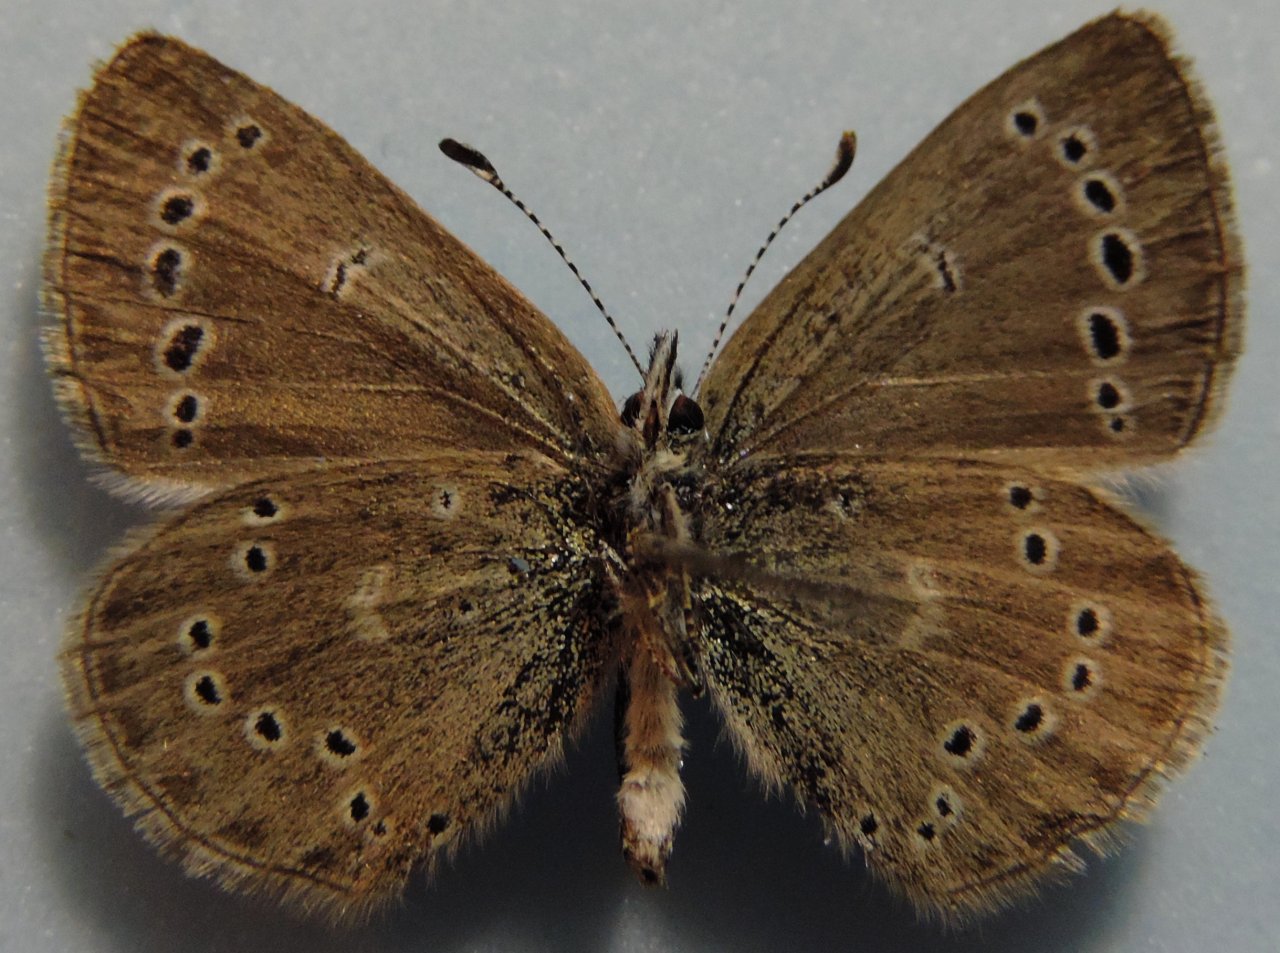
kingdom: Animalia
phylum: Arthropoda
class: Insecta
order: Lepidoptera
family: Lycaenidae
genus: Glaucopsyche
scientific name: Glaucopsyche lygdamus
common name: Silvery Blue
